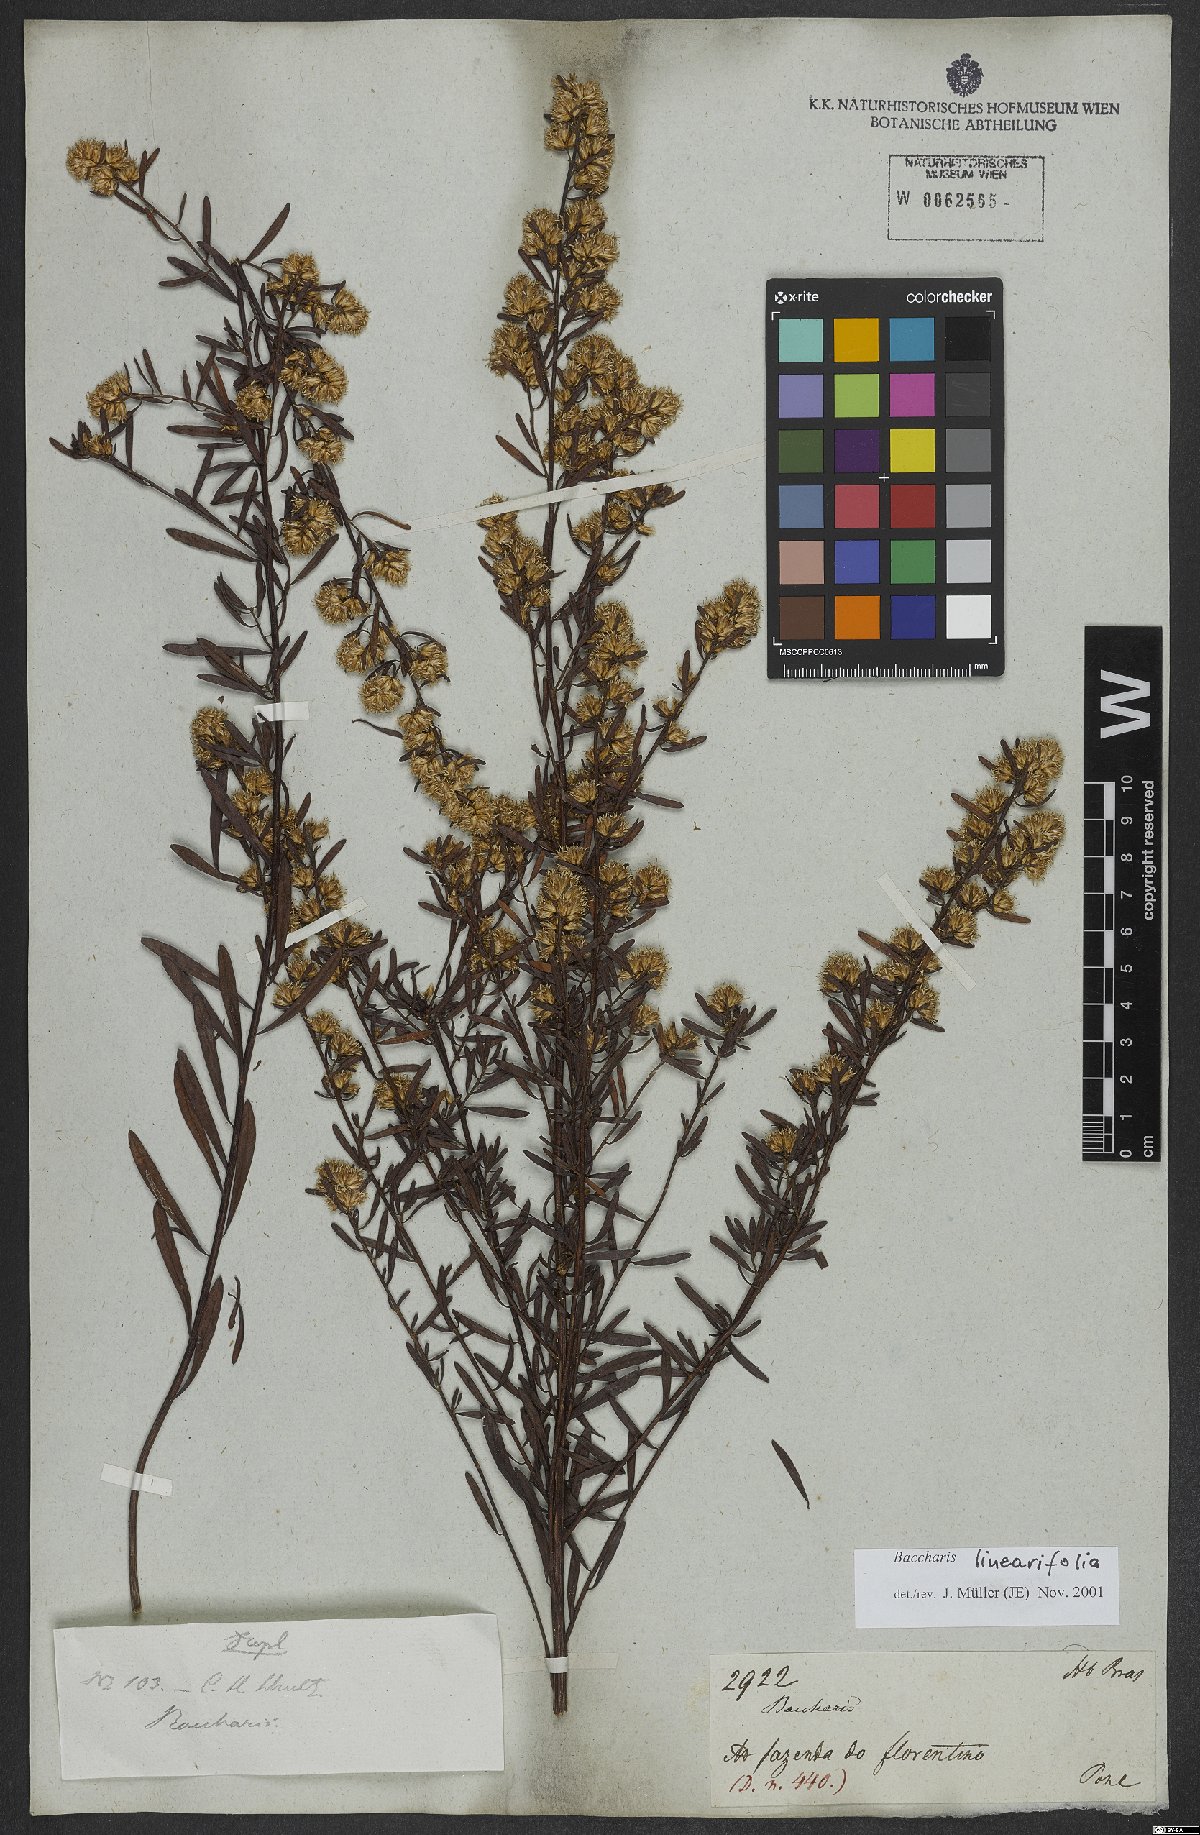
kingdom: Plantae
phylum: Tracheophyta
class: Magnoliopsida
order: Asterales
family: Asteraceae
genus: Baccharis
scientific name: Baccharis linearifolia
